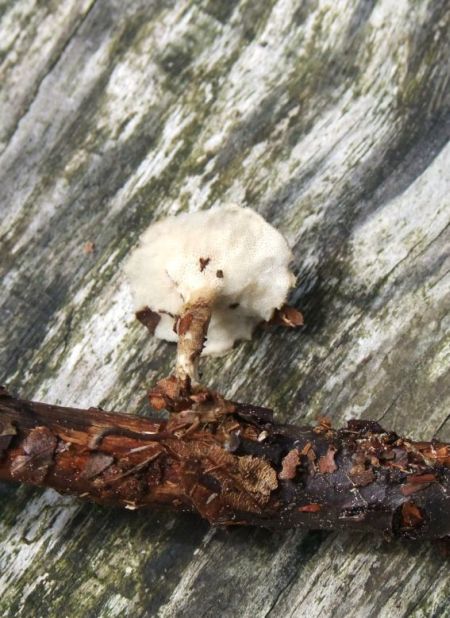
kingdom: Fungi
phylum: Basidiomycota
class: Agaricomycetes
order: Polyporales
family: Polyporaceae
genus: Lentinus
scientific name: Lentinus substrictus
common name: forårs-stilkporesvamp
